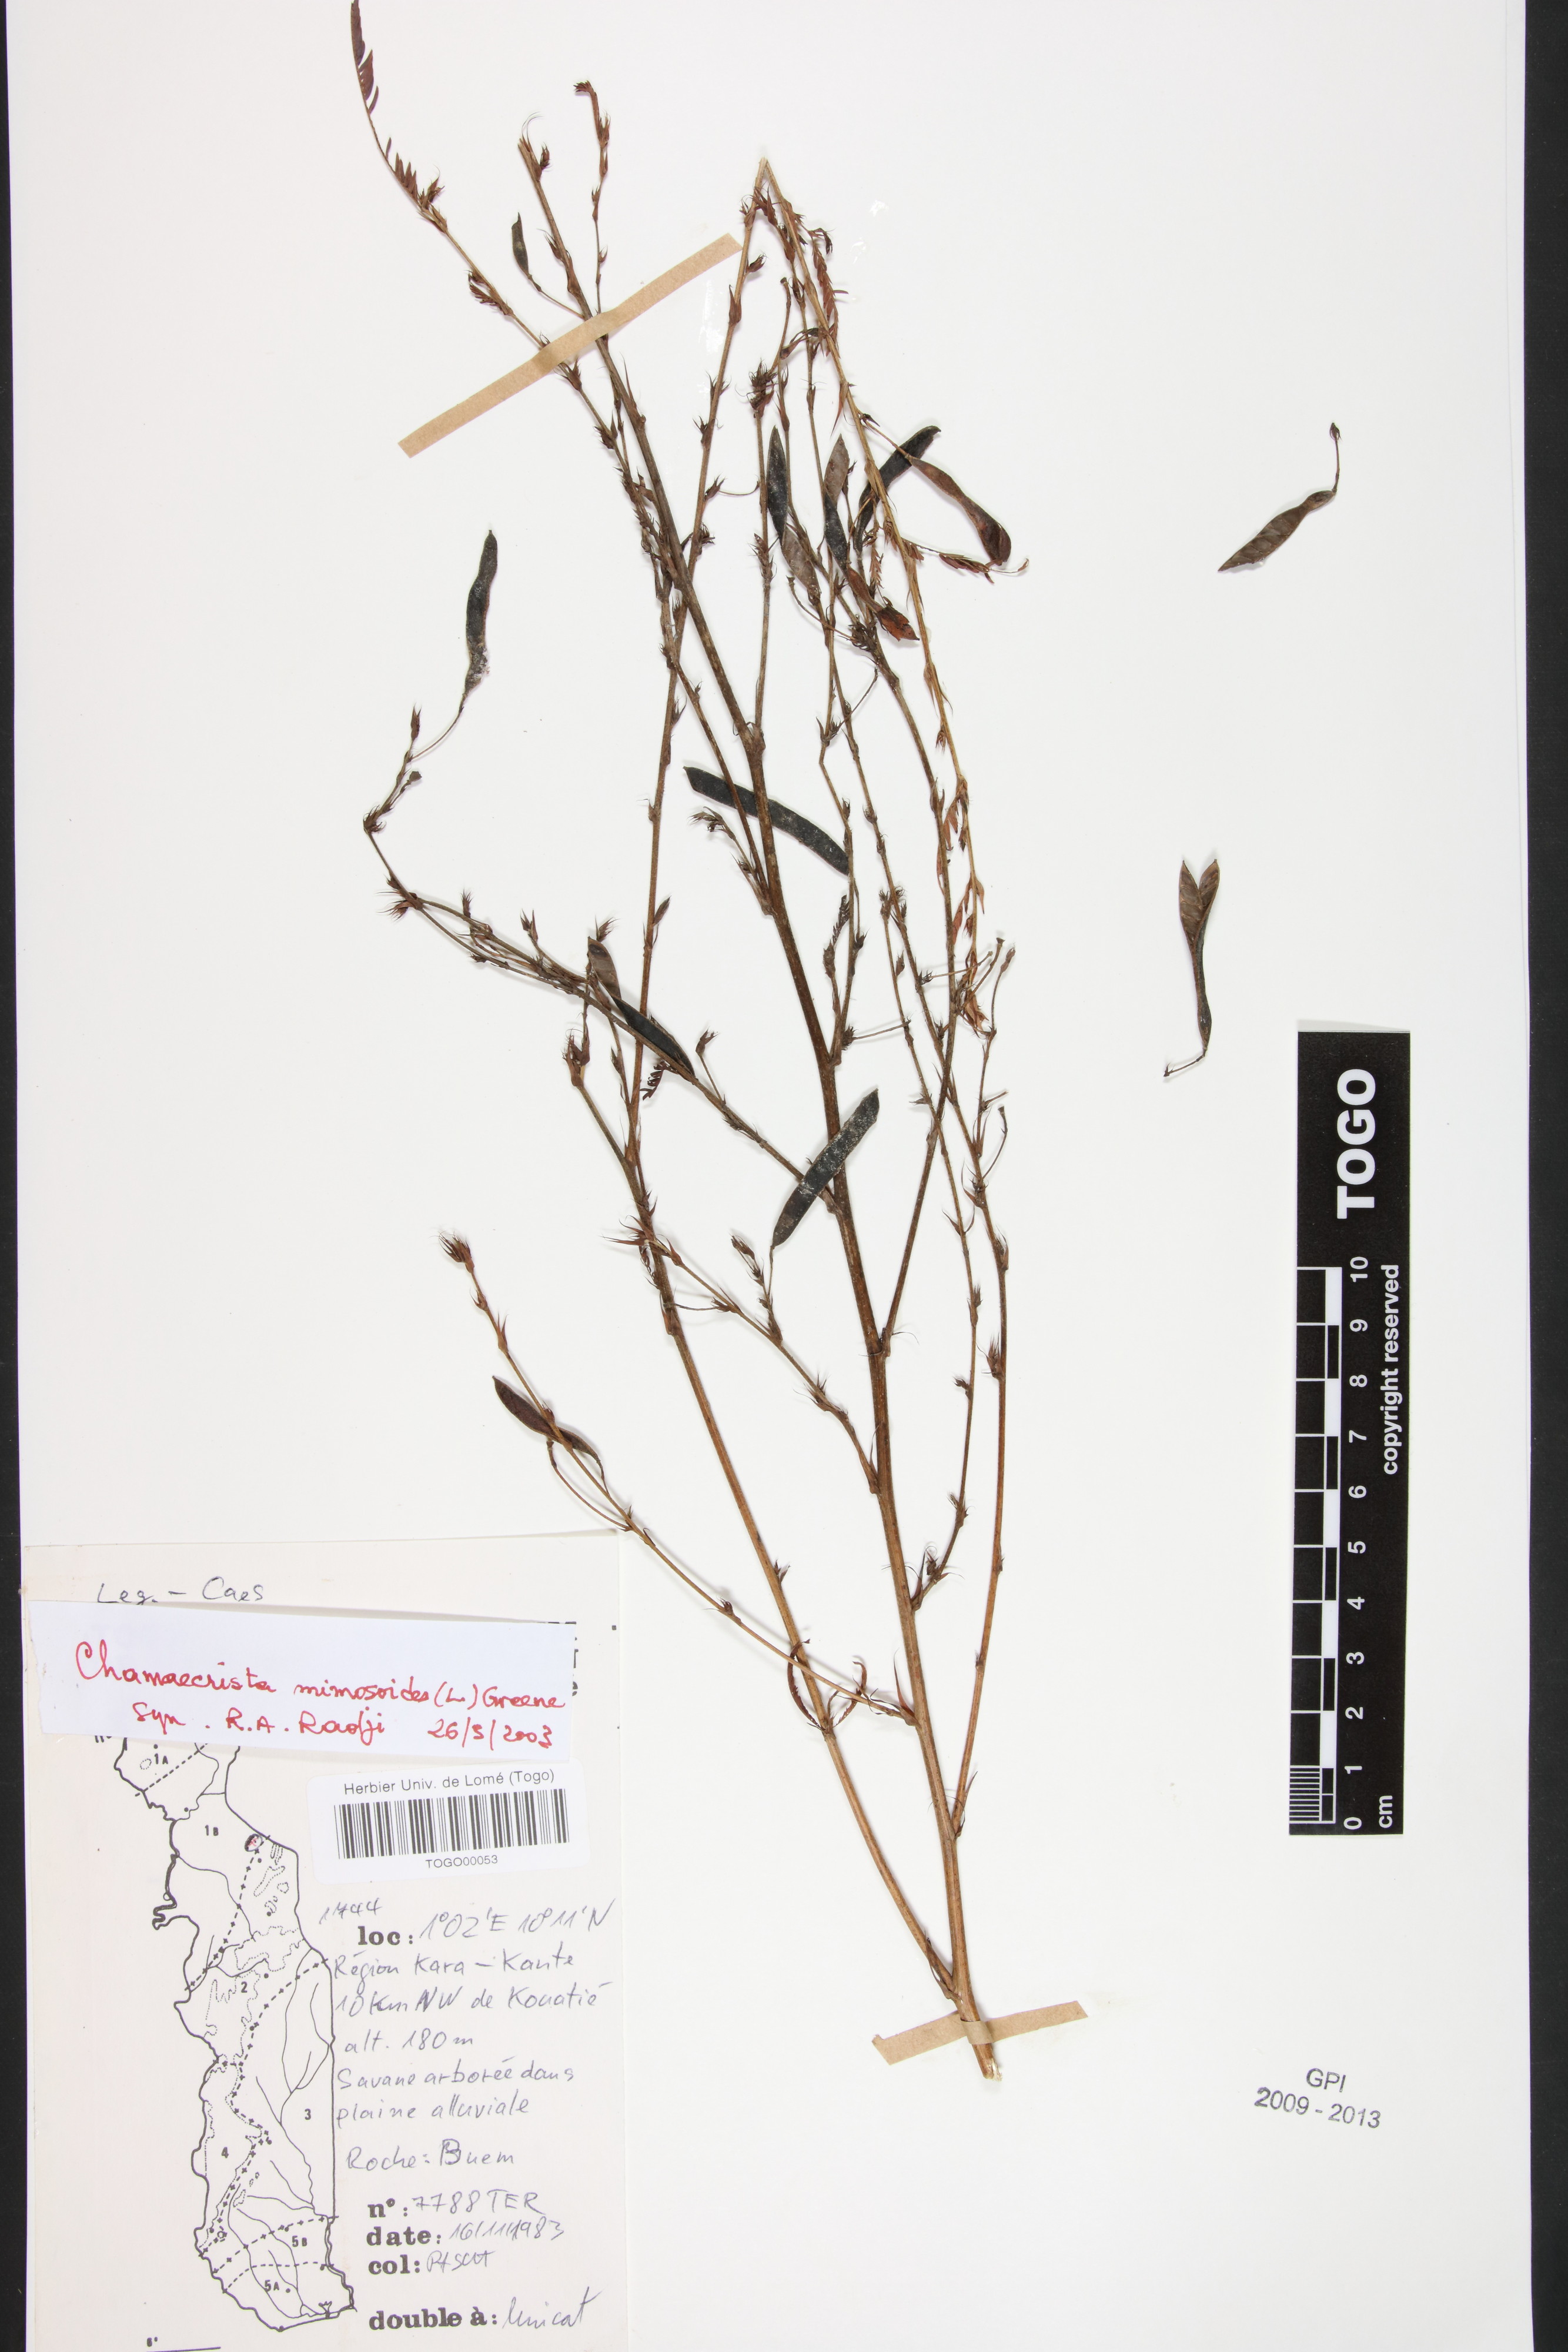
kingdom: Plantae
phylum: Tracheophyta
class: Magnoliopsida
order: Fabales
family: Fabaceae
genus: Chamaecrista
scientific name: Chamaecrista mimosoides
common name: Fish-bone cassia
